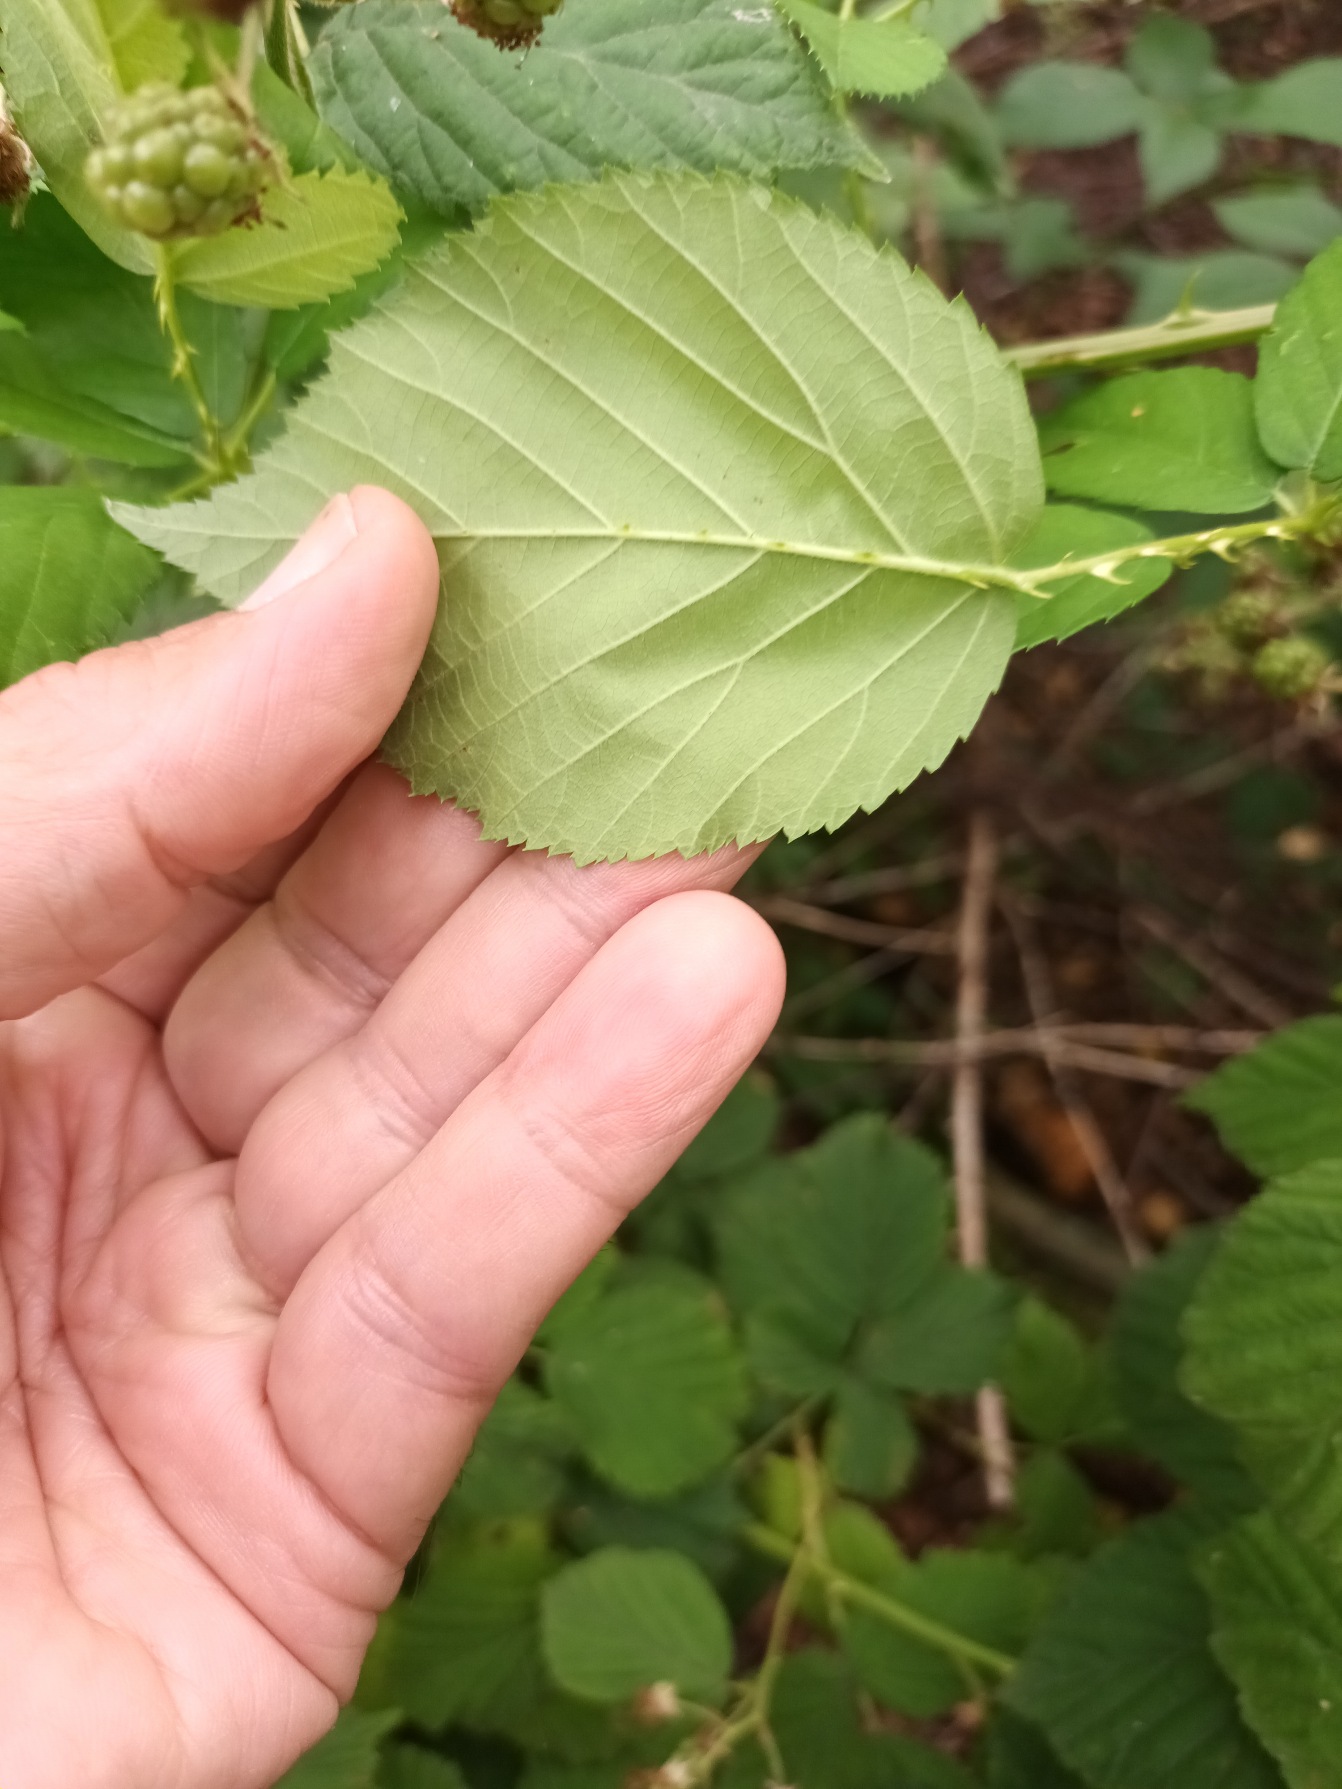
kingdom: Plantae
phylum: Tracheophyta
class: Magnoliopsida
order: Rosales
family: Rosaceae
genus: Rubus
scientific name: Rubus pseudothyrsanthus
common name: Top-brombær
